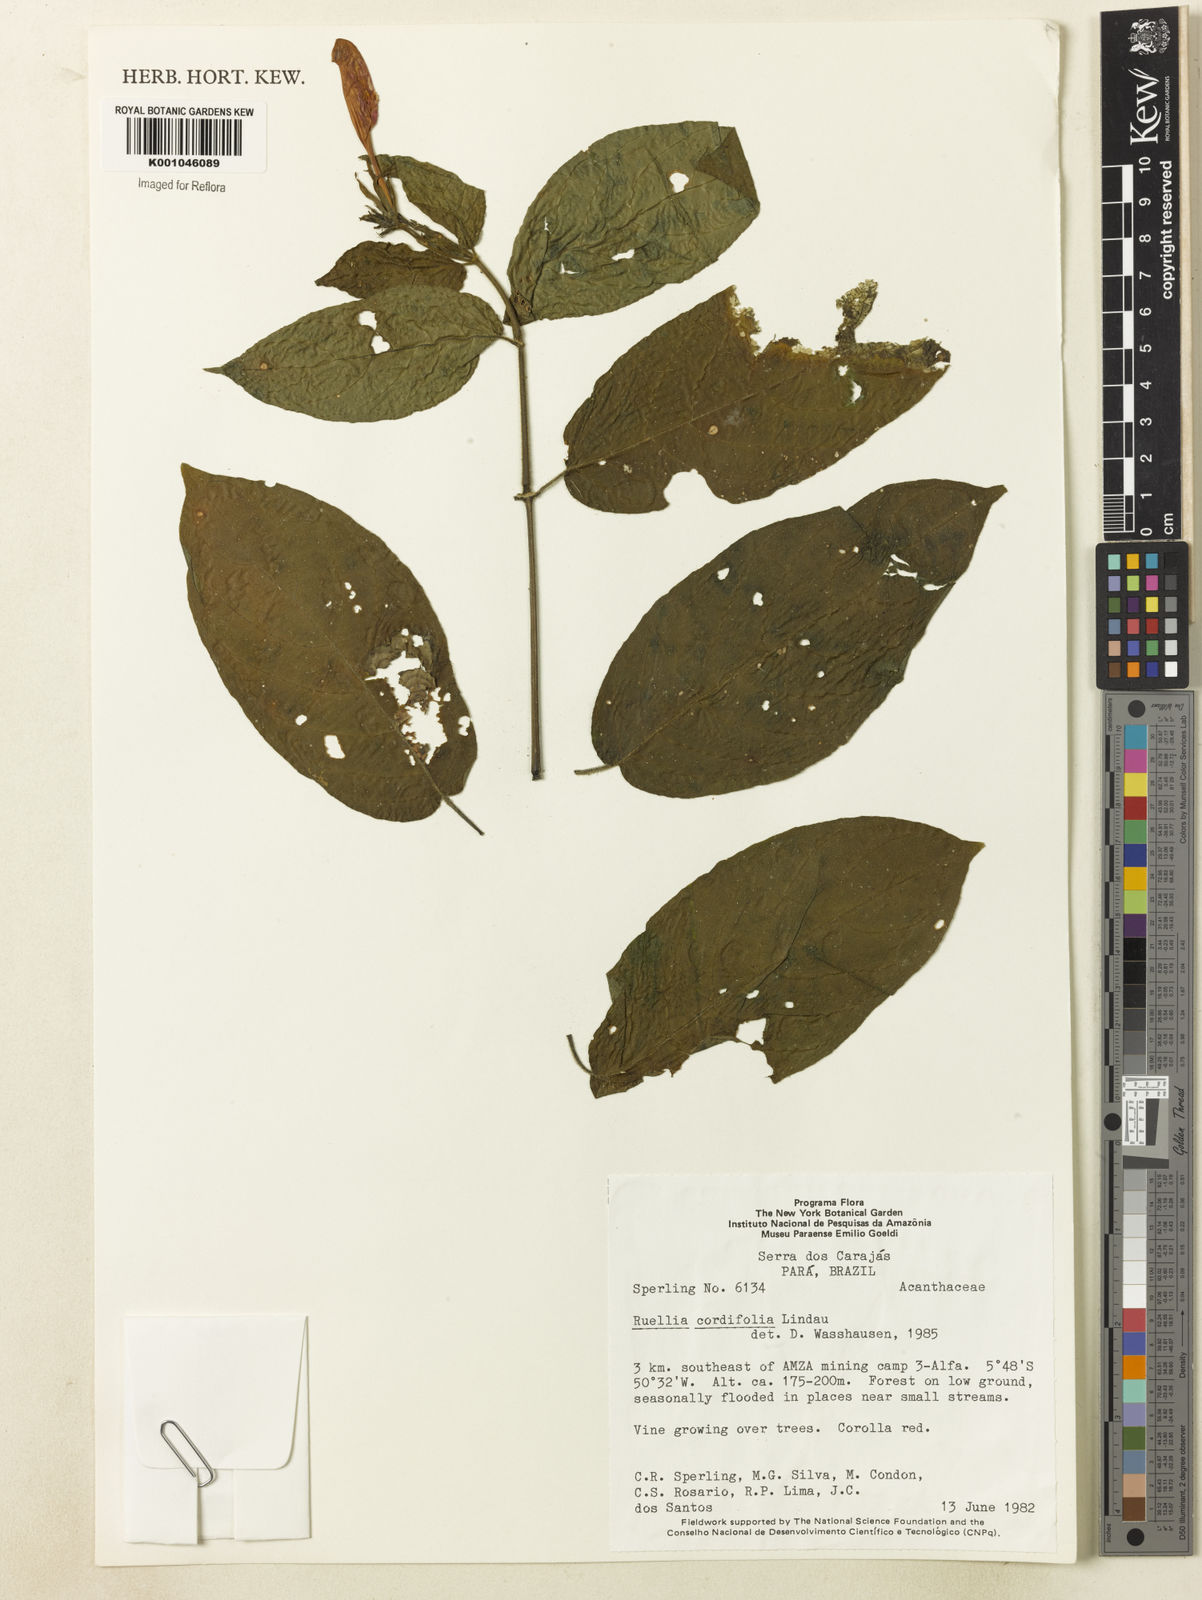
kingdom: Plantae
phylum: Tracheophyta
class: Magnoliopsida
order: Lamiales
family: Acanthaceae
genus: Ruellia
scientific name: Ruellia inflata
